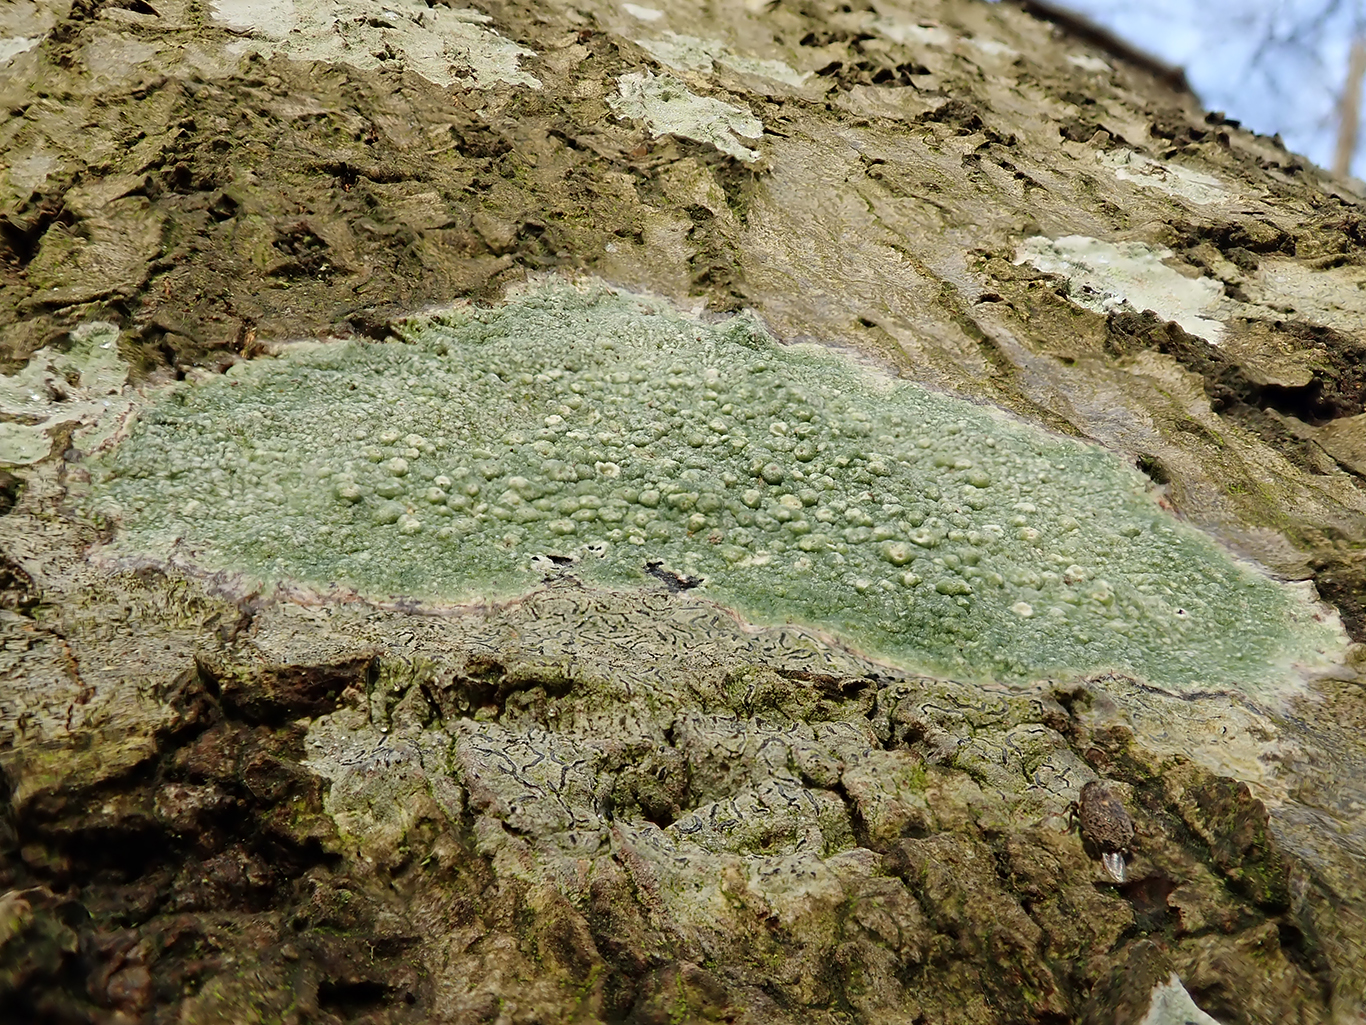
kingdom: Fungi
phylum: Ascomycota
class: Lecanoromycetes
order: Pertusariales
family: Pertusariaceae
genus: Pertusaria
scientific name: Pertusaria pertusa
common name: almindelig prikvortelav
